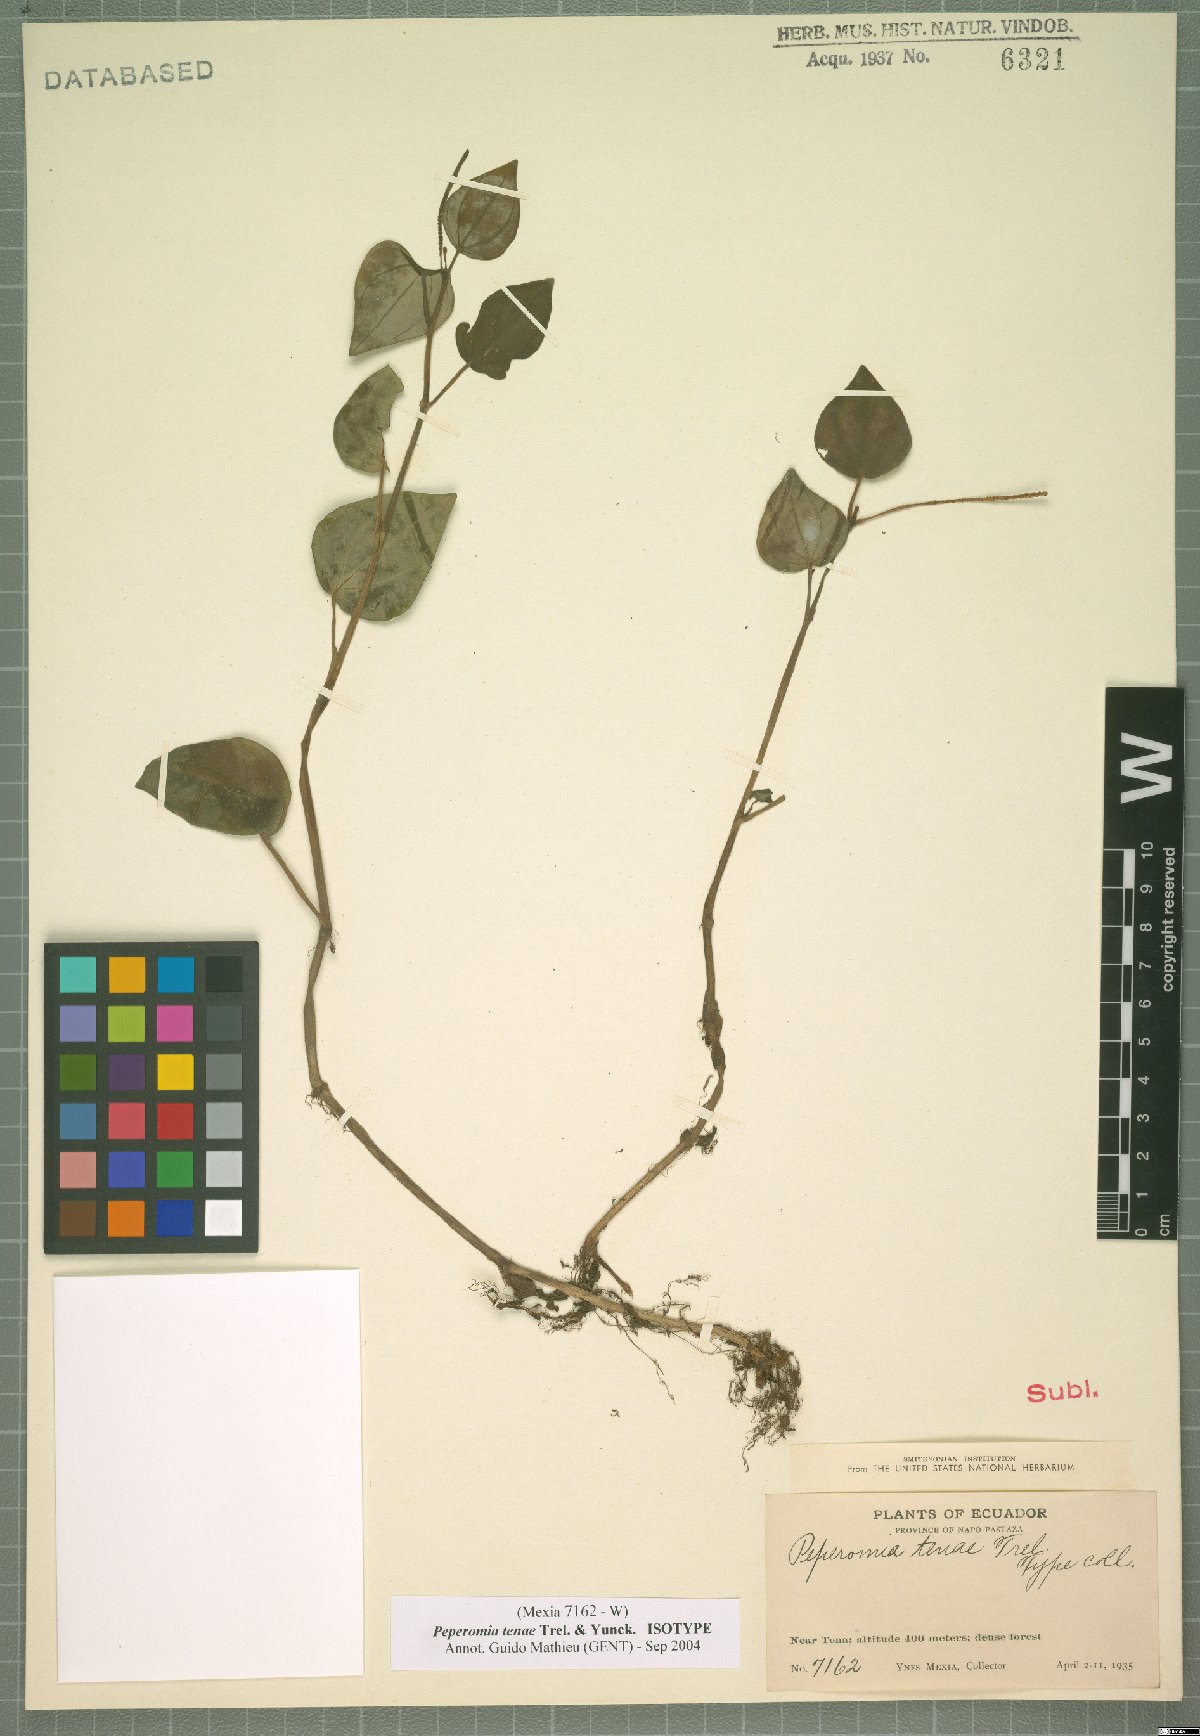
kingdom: Plantae
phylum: Tracheophyta
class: Magnoliopsida
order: Piperales
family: Piperaceae
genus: Peperomia
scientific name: Peperomia tenae
